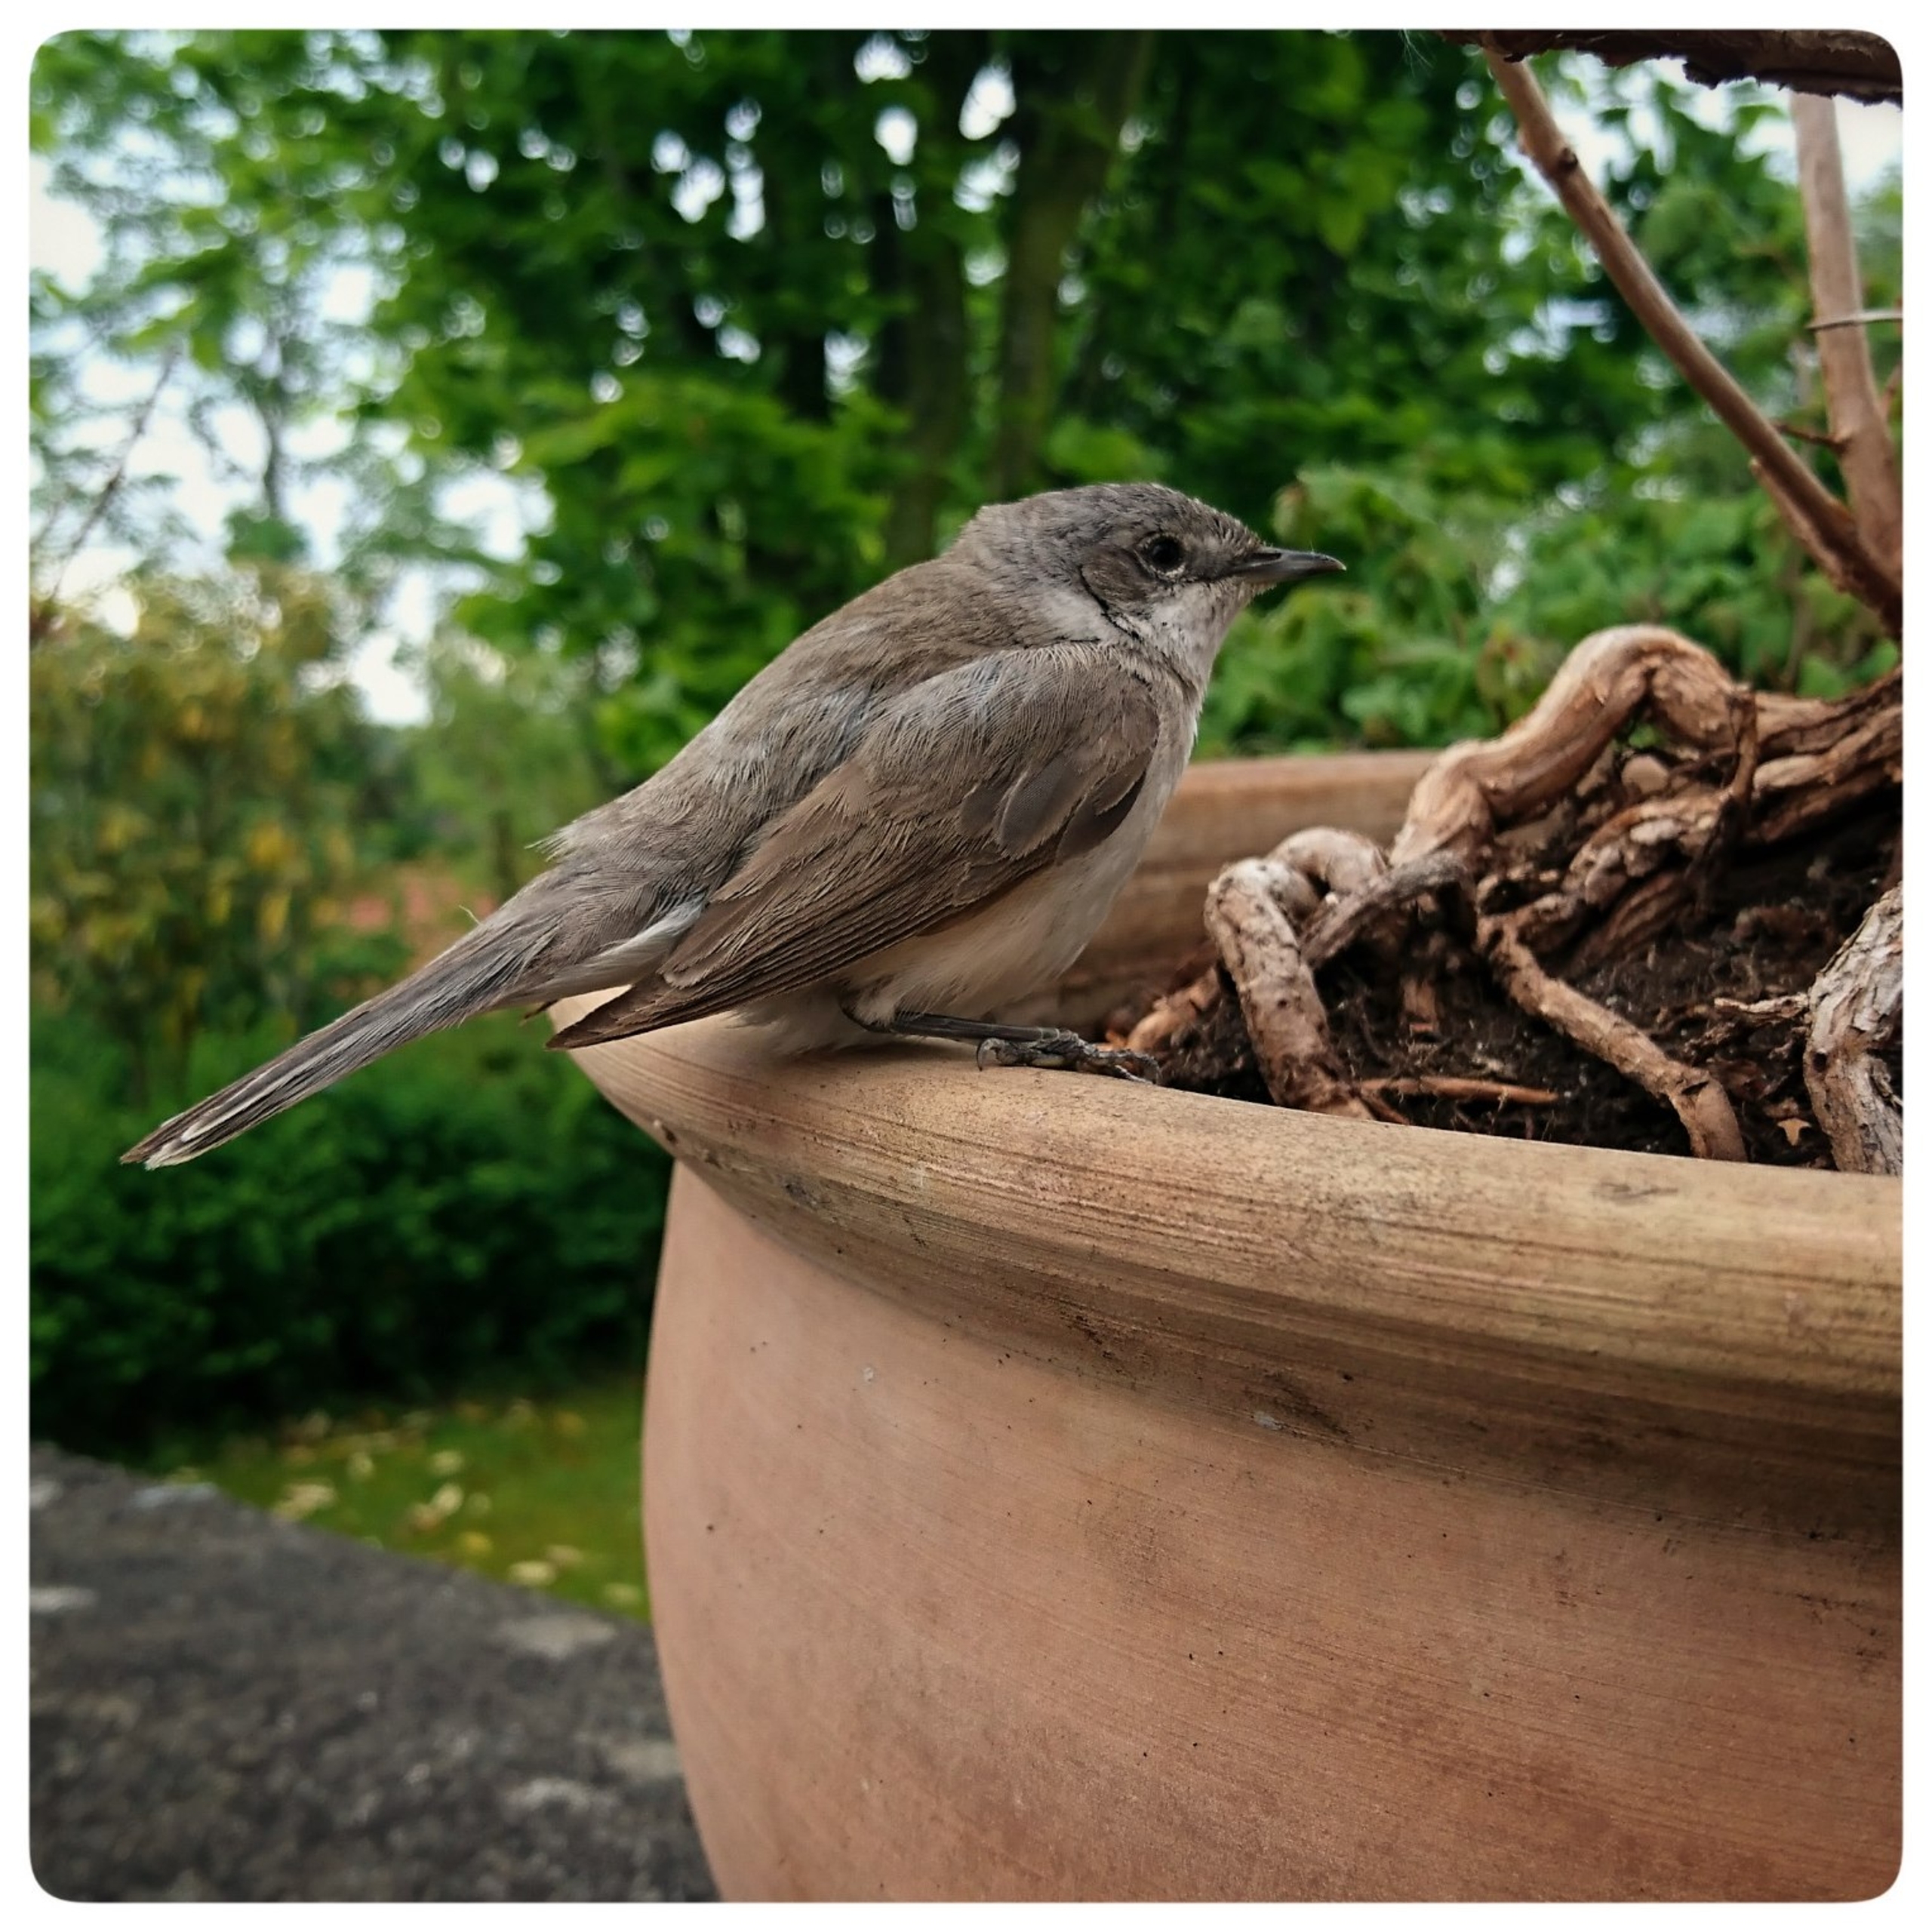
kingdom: Animalia
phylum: Chordata
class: Aves
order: Passeriformes
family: Sylviidae
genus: Sylvia
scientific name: Sylvia curruca
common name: Gærdesanger
